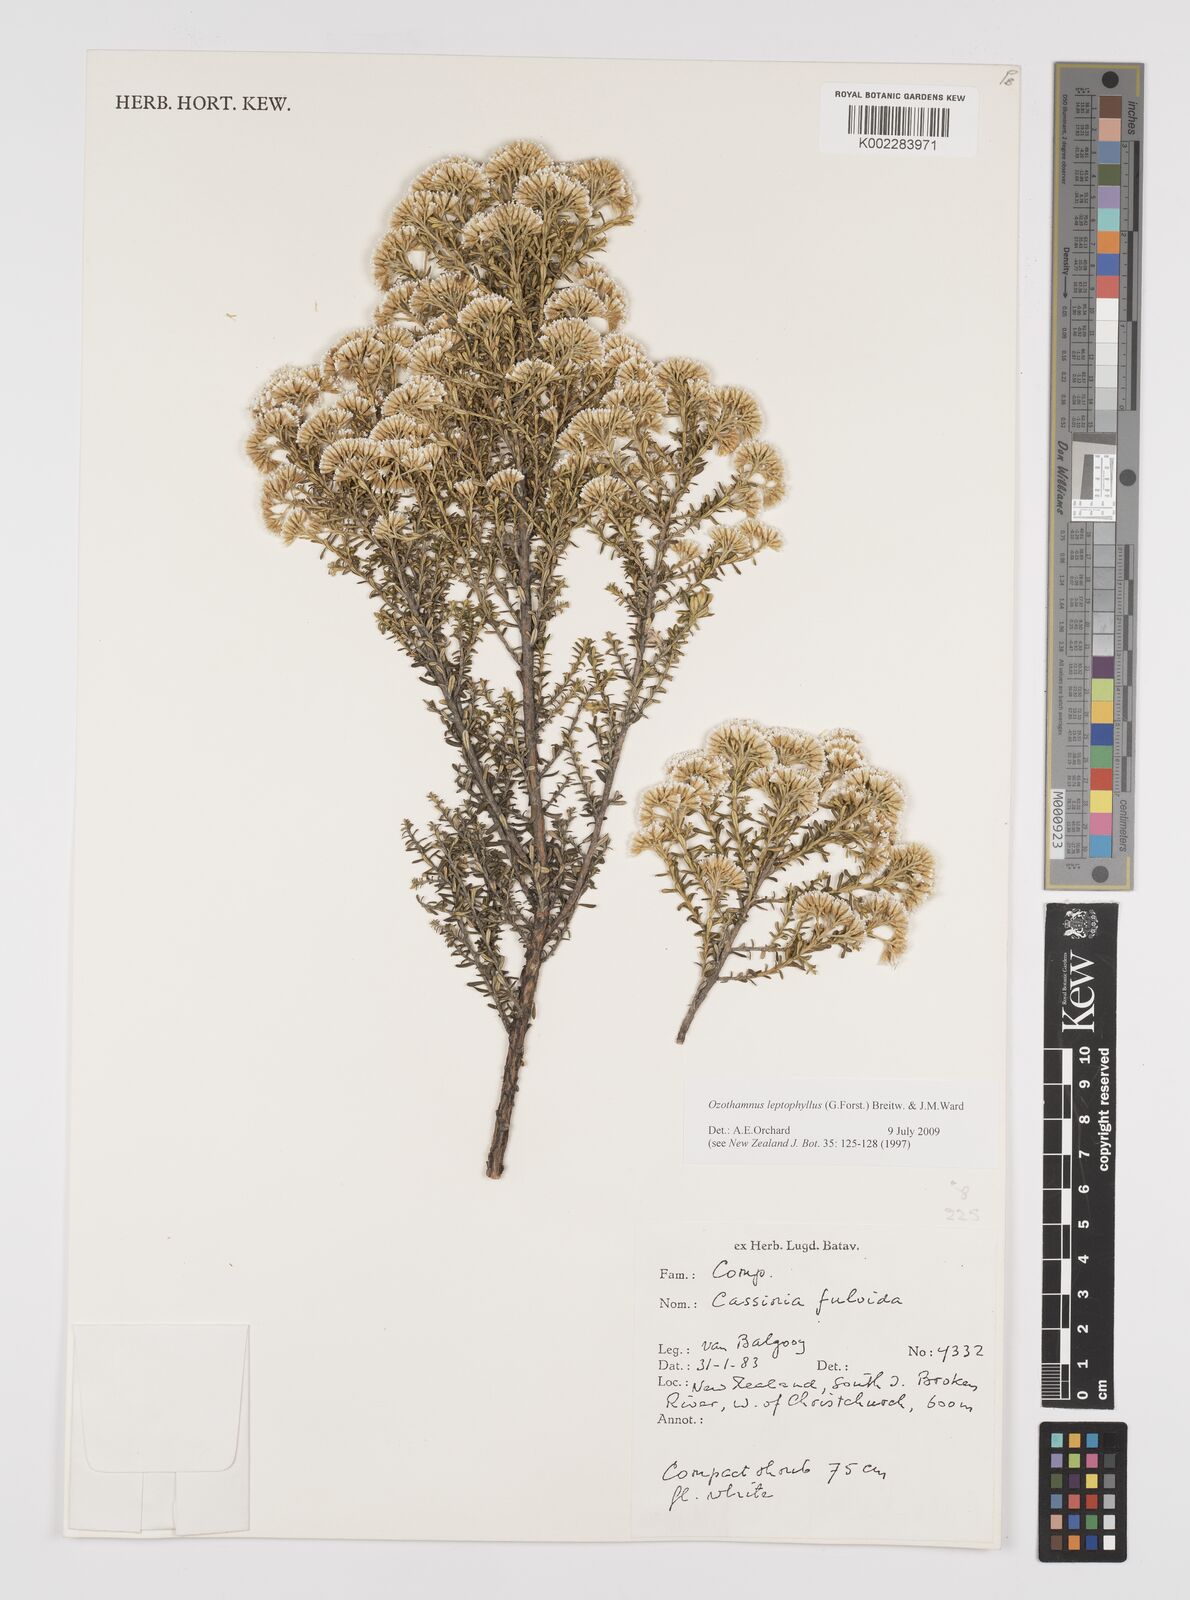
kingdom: Plantae
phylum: Tracheophyta
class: Magnoliopsida
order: Asterales
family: Asteraceae
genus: Ozothamnus
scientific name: Ozothamnus leptophyllus
